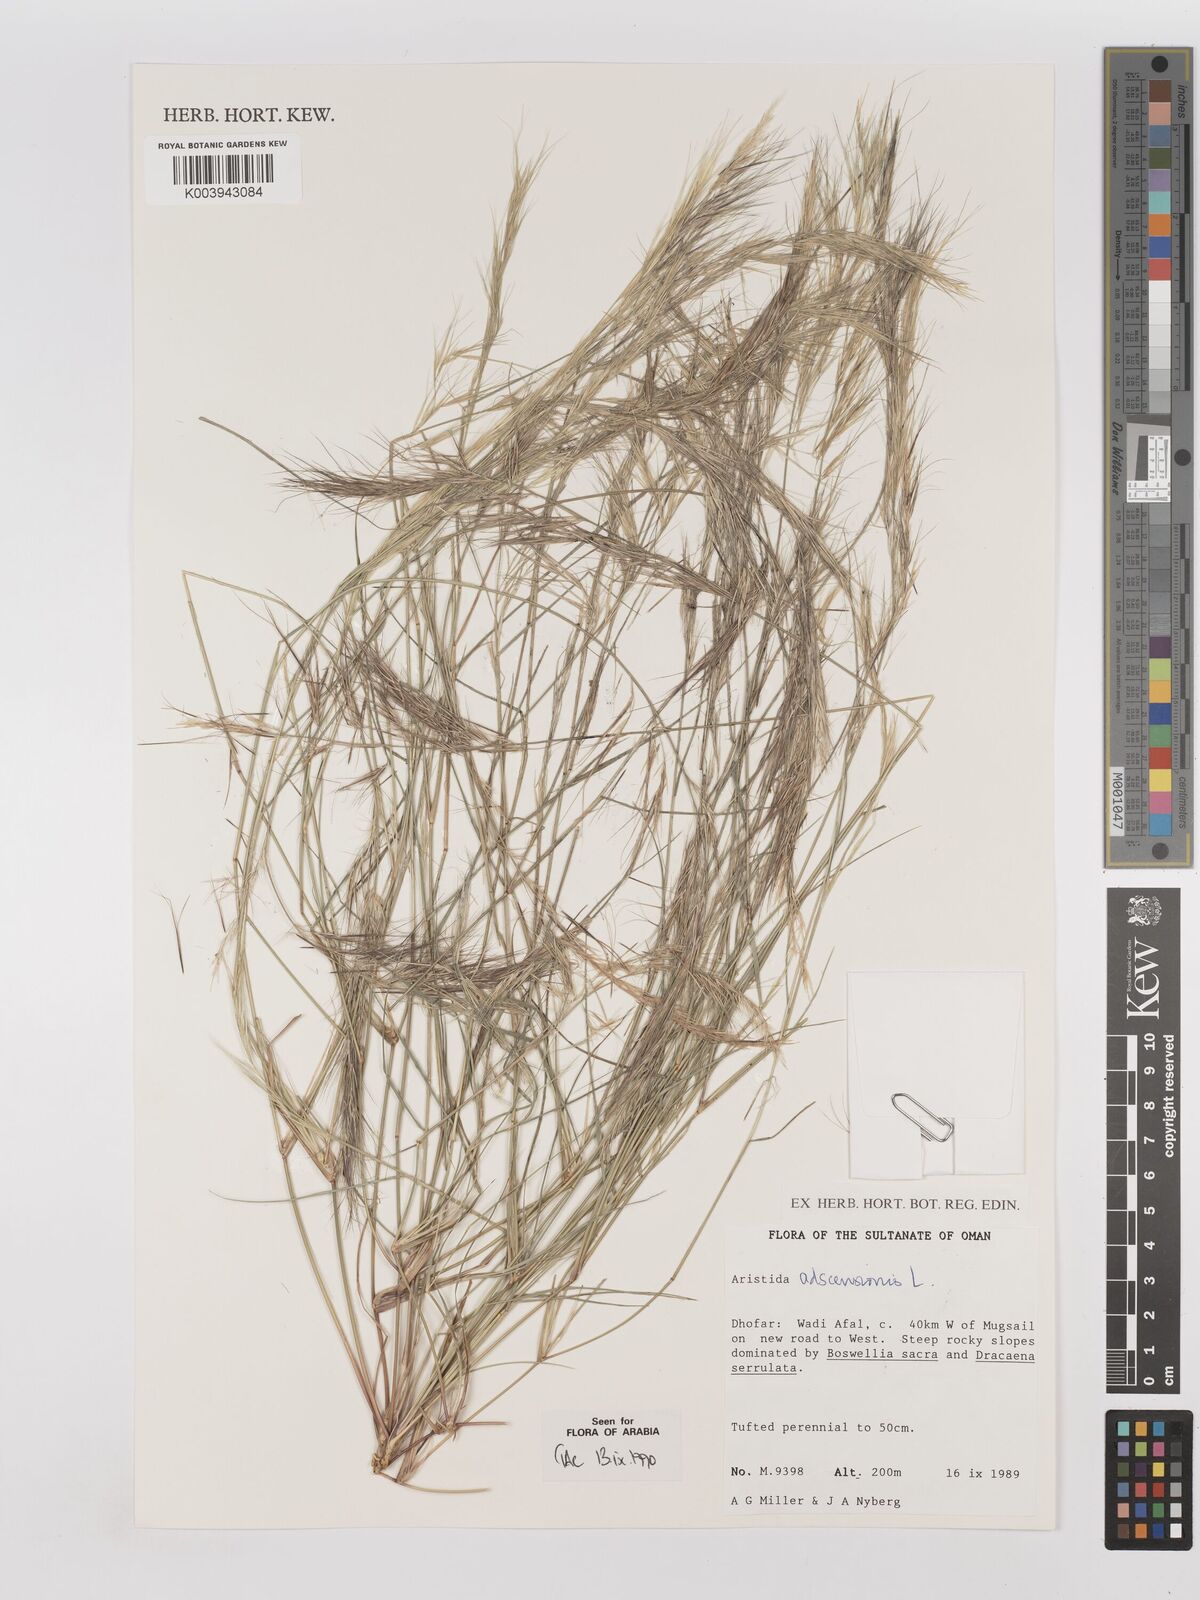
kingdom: Plantae
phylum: Tracheophyta
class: Liliopsida
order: Poales
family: Poaceae
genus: Aristida
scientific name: Aristida adscensionis
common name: Sixweeks threeawn
